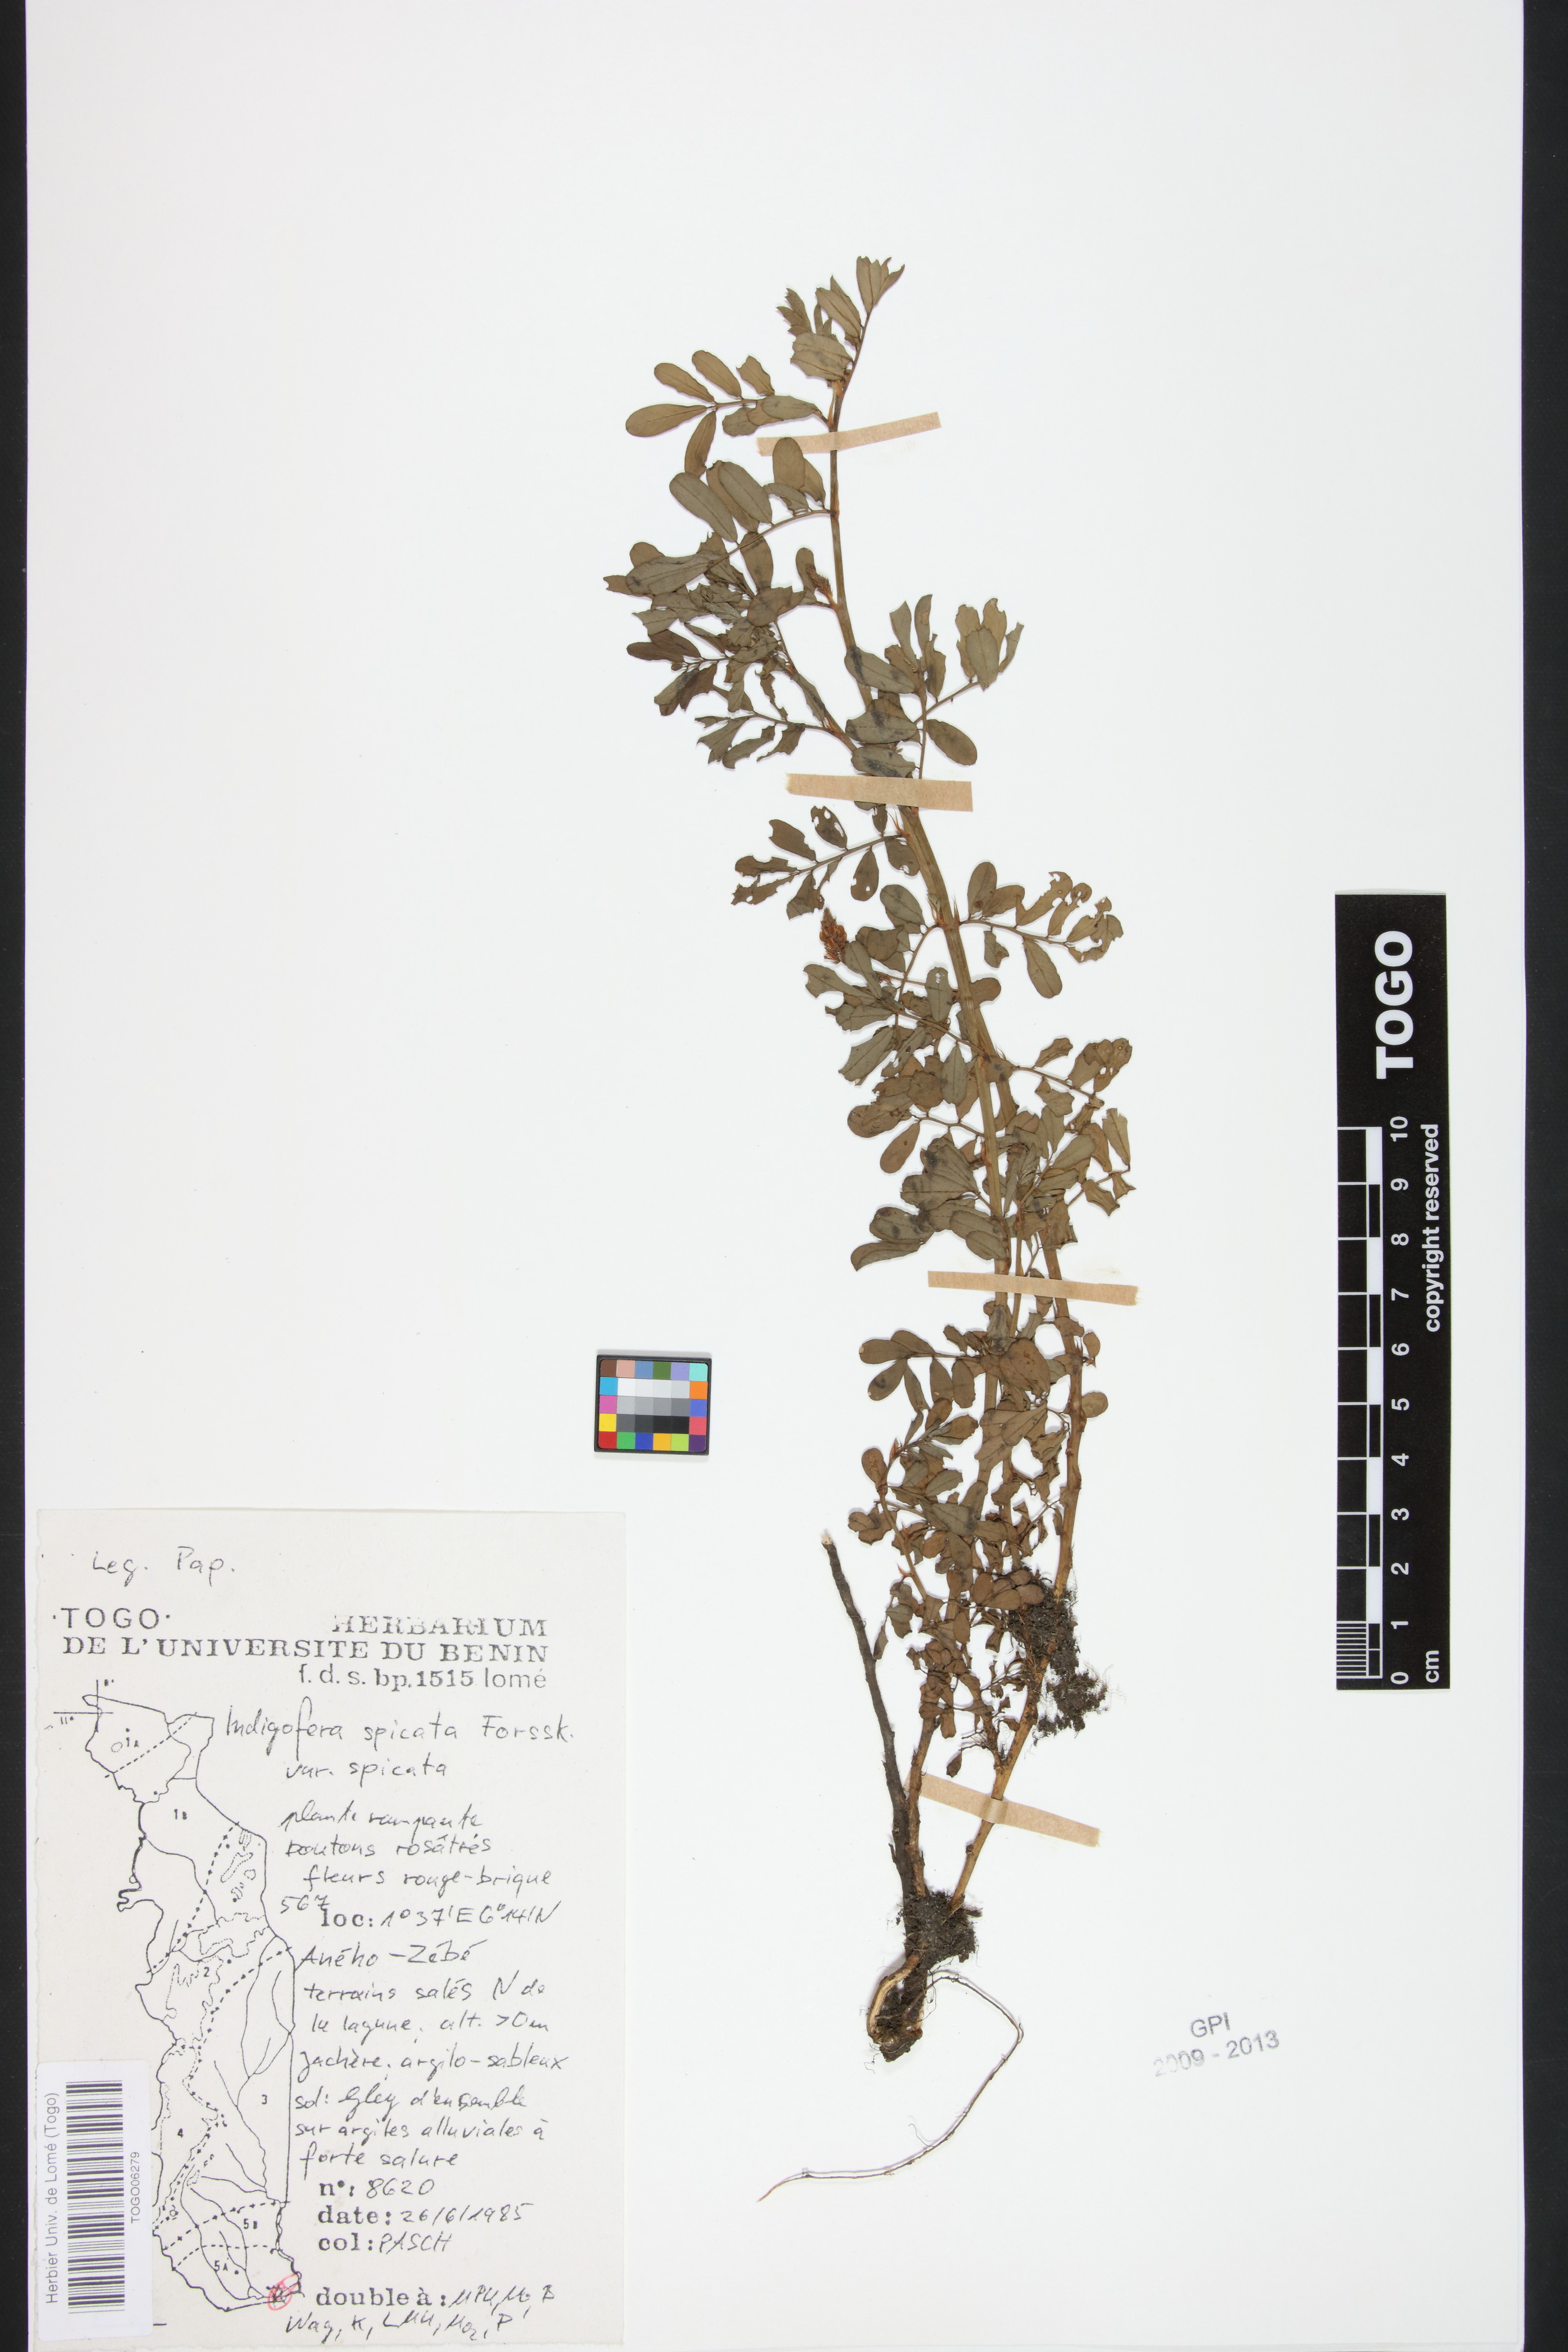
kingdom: Plantae
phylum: Tracheophyta
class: Magnoliopsida
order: Fabales
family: Fabaceae
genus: Indigofera
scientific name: Indigofera spicata
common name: Creeping indigo
